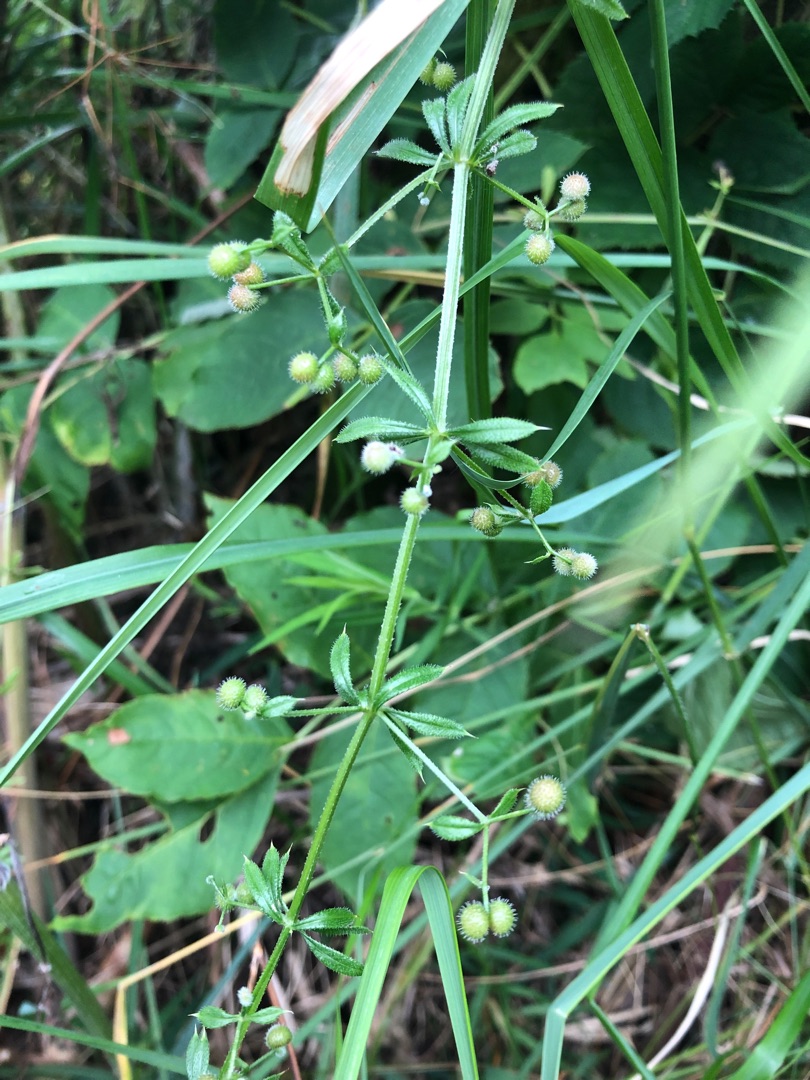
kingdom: Plantae
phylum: Tracheophyta
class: Magnoliopsida
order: Gentianales
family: Rubiaceae
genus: Galium
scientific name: Galium aparine
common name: Burre-snerre
